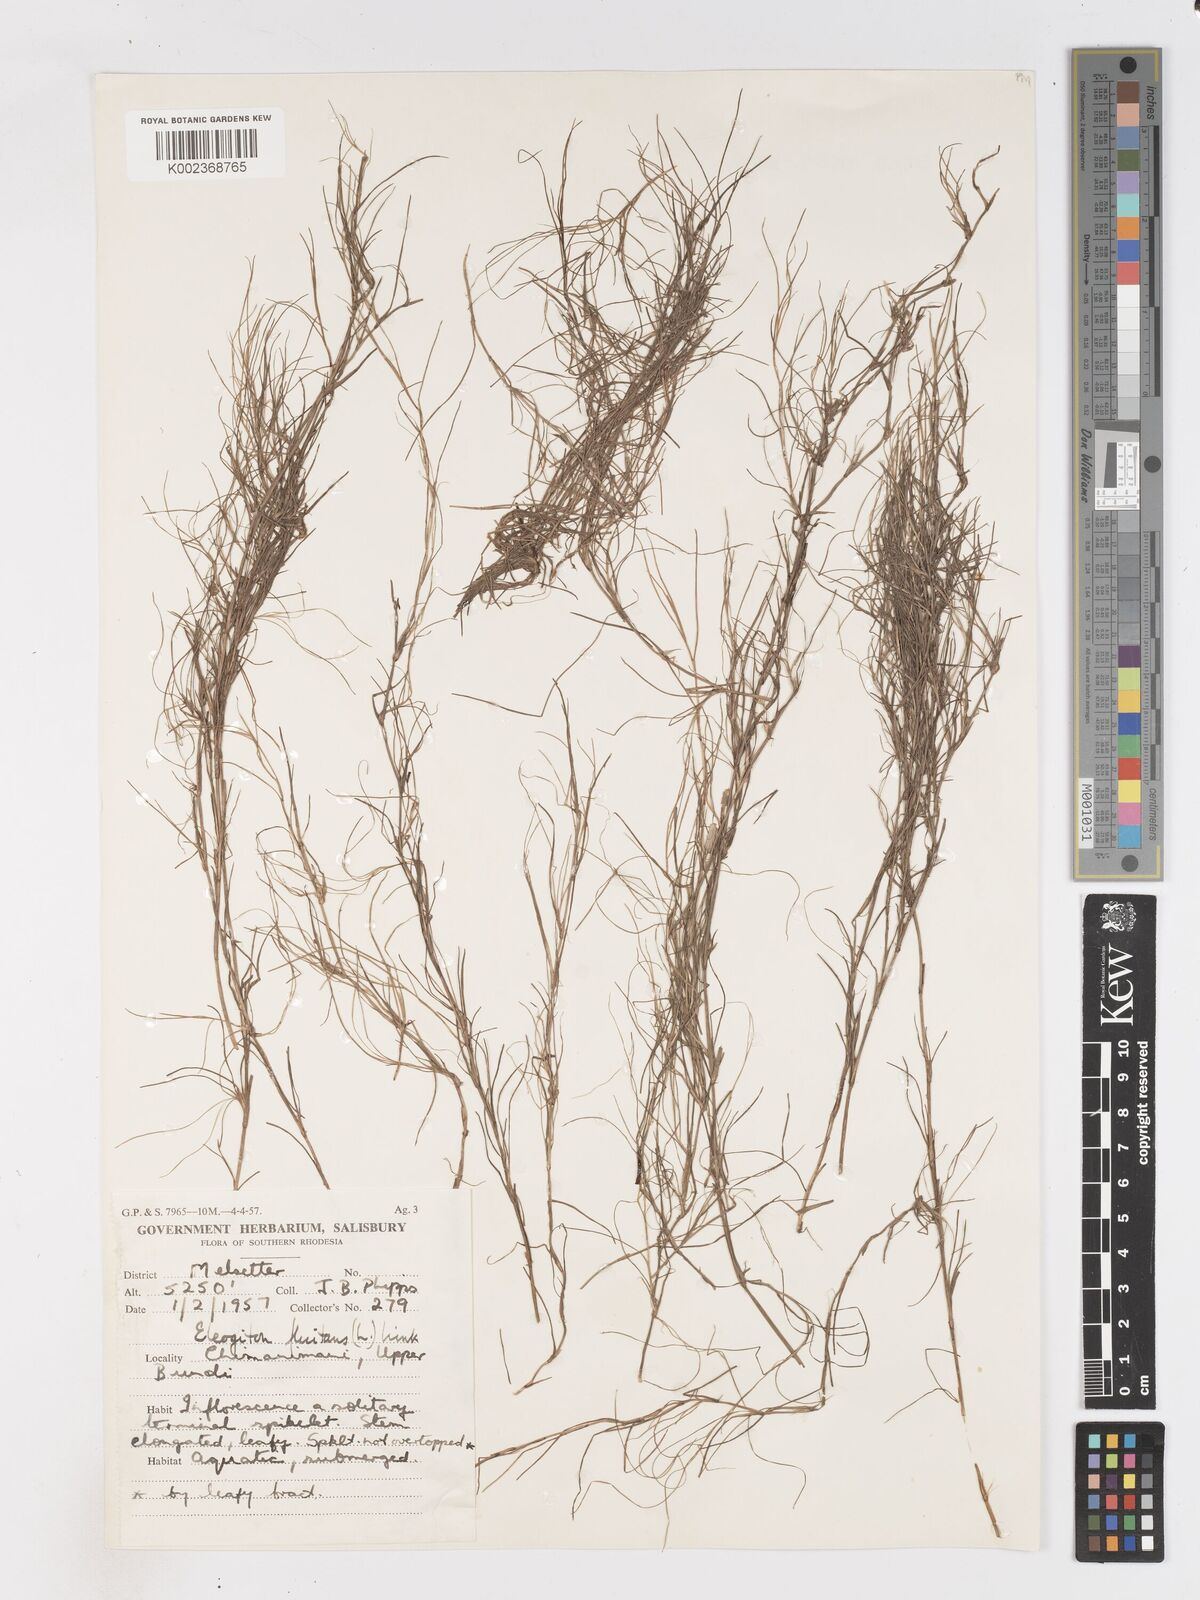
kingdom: Plantae
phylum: Tracheophyta
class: Liliopsida
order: Poales
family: Cyperaceae
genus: Isolepis
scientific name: Isolepis fluitans
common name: Floating club-rush
